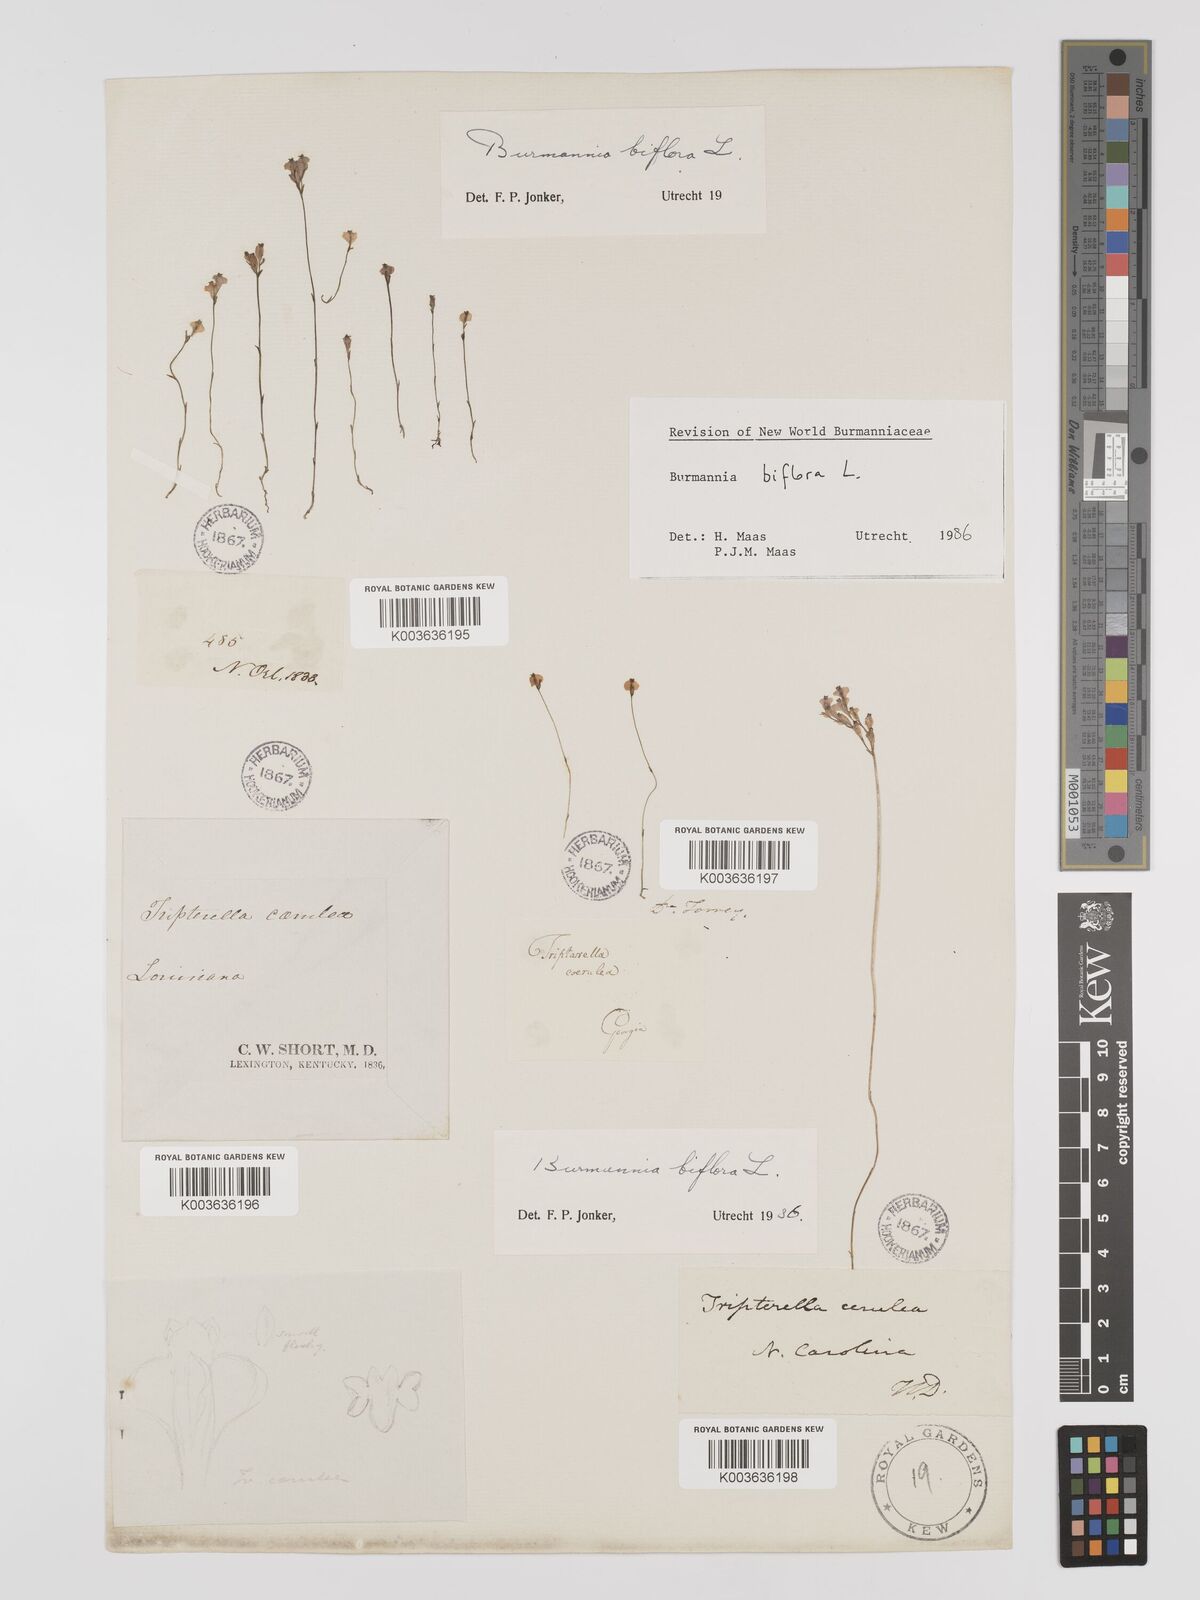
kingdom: Plantae
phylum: Tracheophyta
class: Liliopsida
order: Dioscoreales
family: Burmanniaceae
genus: Burmannia
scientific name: Burmannia biflora
